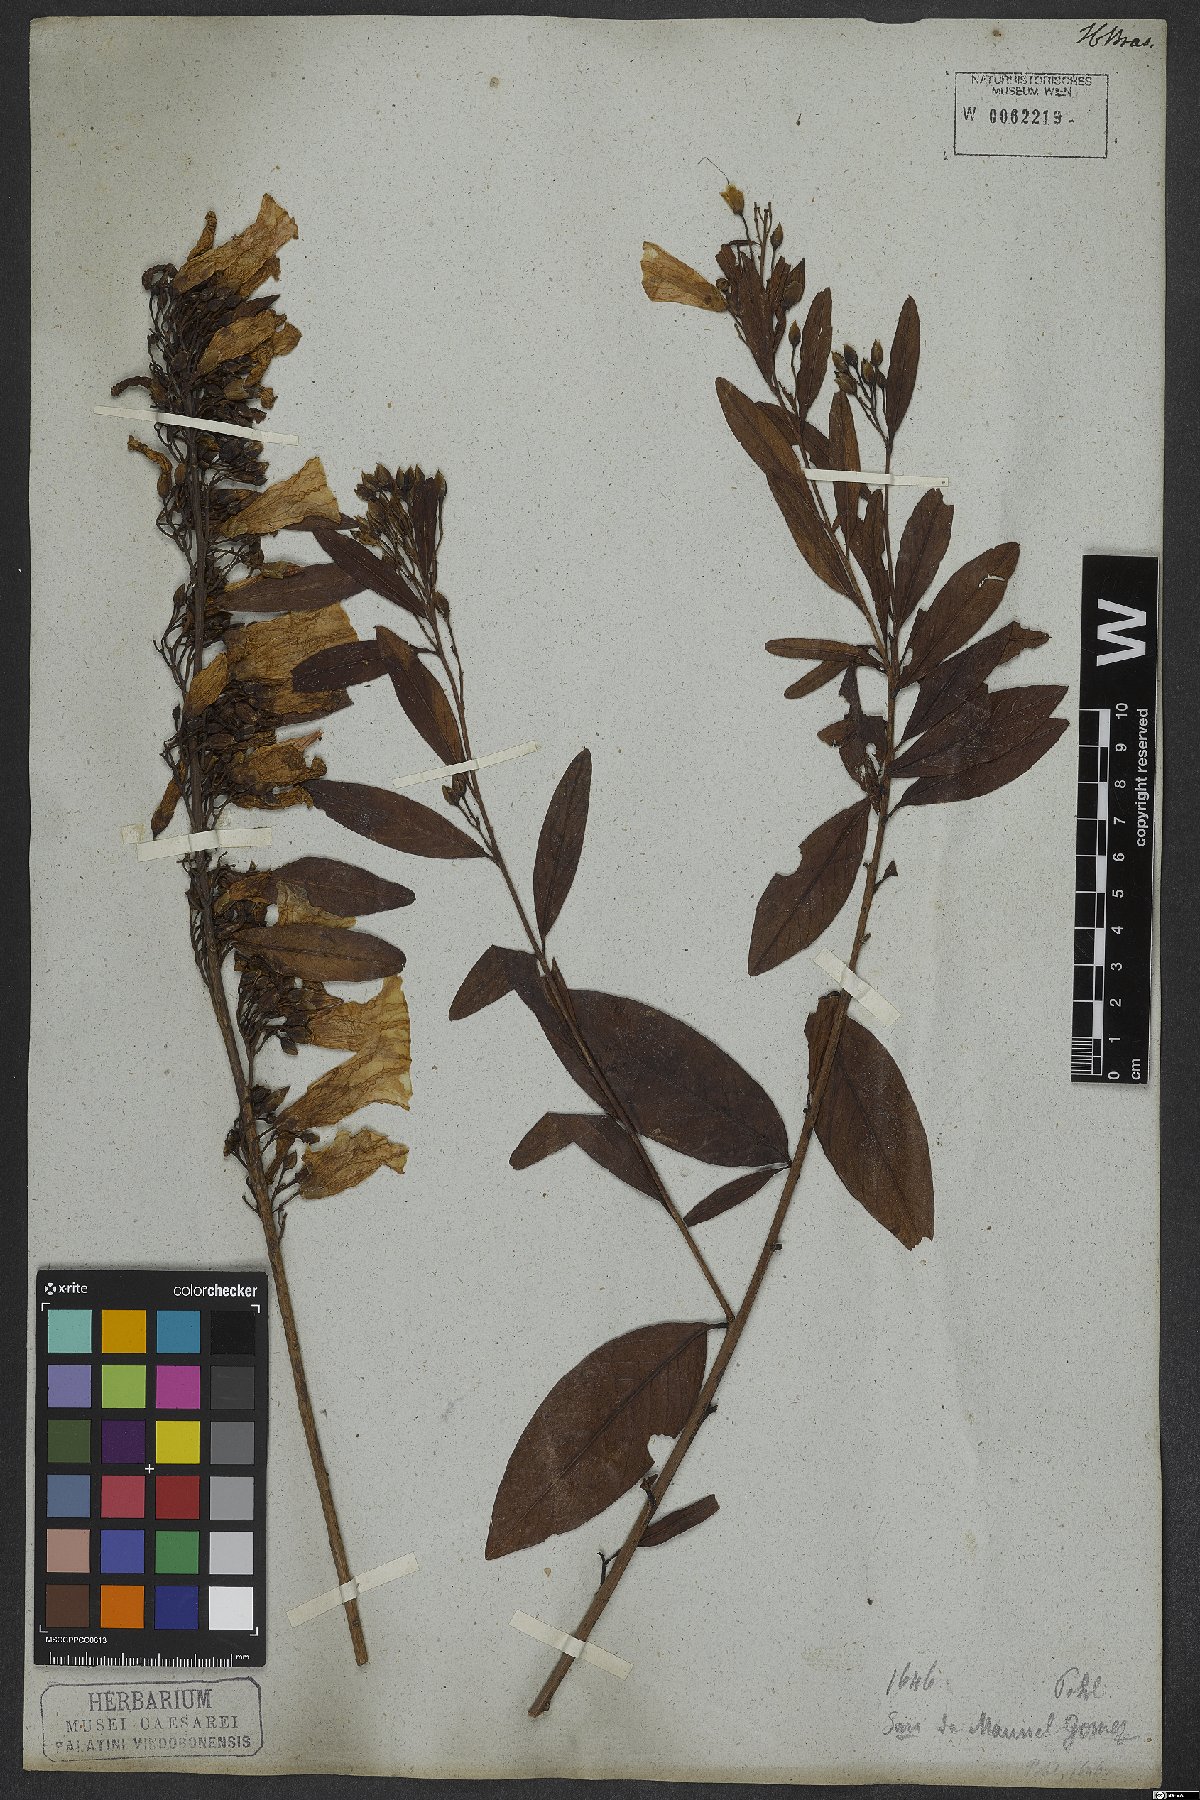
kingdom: Plantae
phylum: Tracheophyta
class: Magnoliopsida
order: Solanales
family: Convolvulaceae
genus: Ipomoea
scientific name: Ipomoea hederifolia
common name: Ivy-leaf morning-glory
